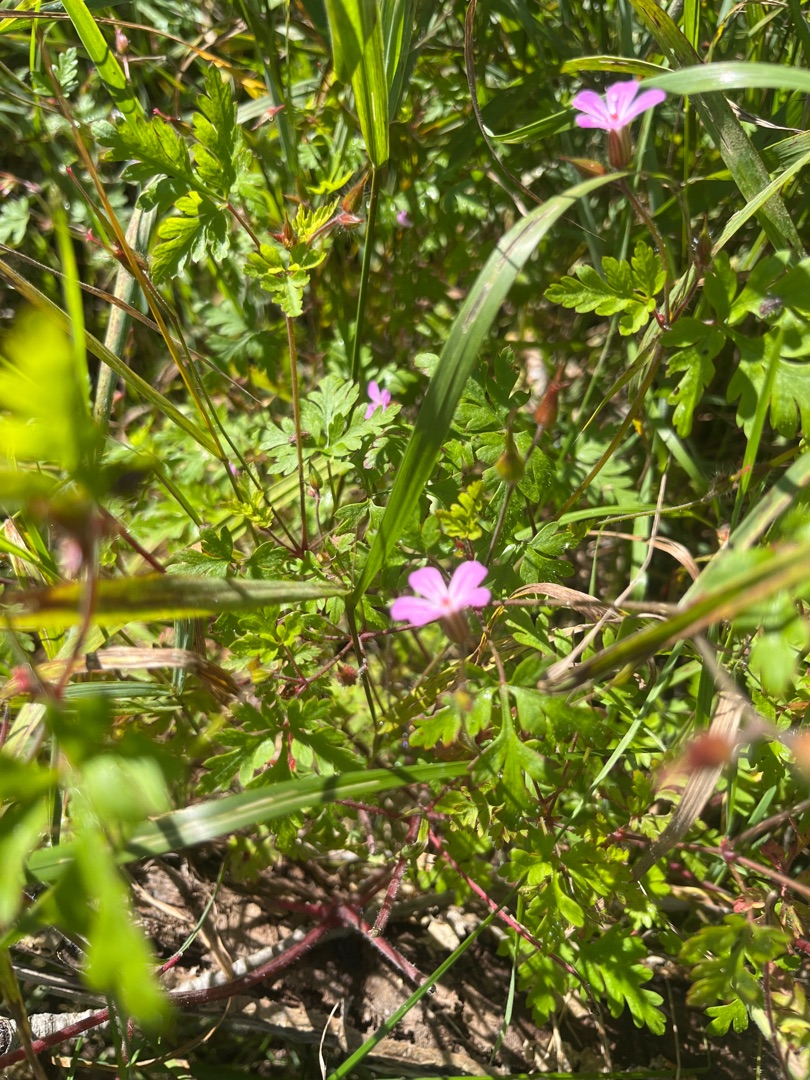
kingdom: Plantae
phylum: Tracheophyta
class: Magnoliopsida
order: Geraniales
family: Geraniaceae
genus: Geranium
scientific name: Geranium robertianum
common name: Stinkende storkenæb
